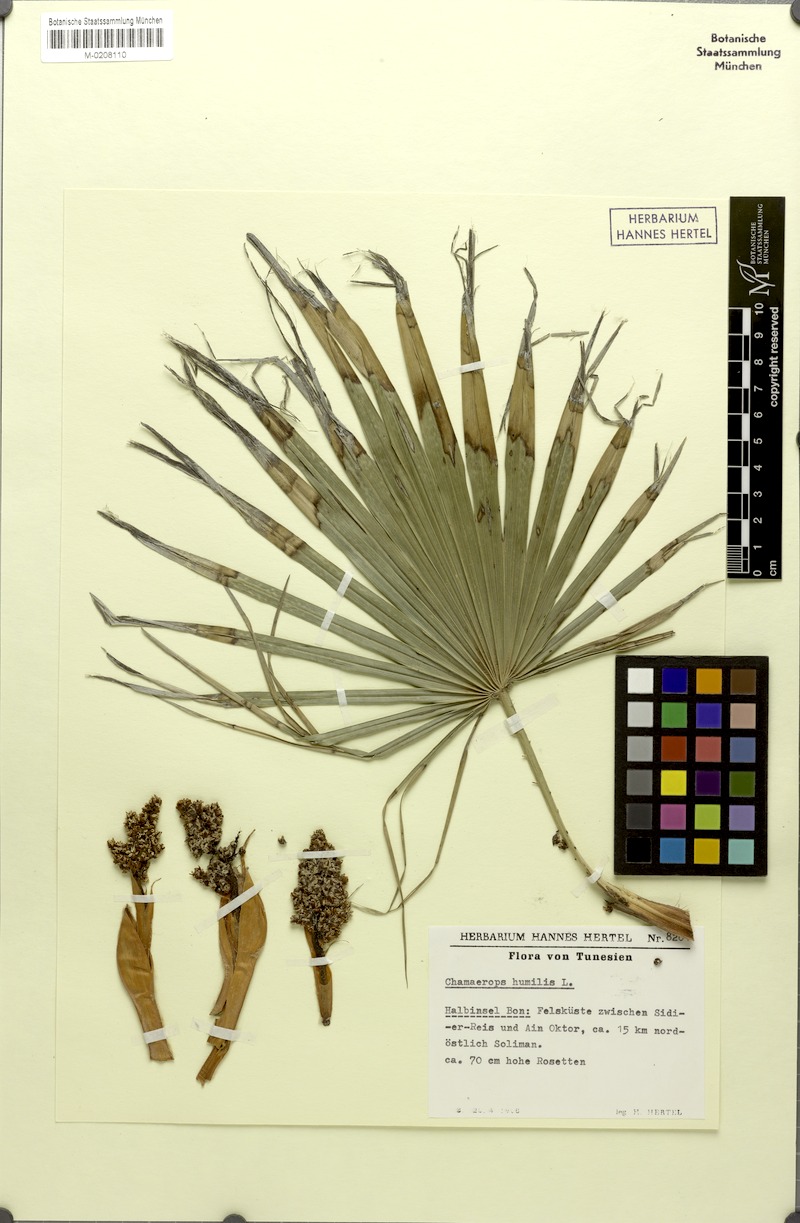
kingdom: Plantae
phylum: Tracheophyta
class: Liliopsida
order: Arecales
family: Arecaceae
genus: Chamaerops
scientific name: Chamaerops humilis
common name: Dwarf fan palm
